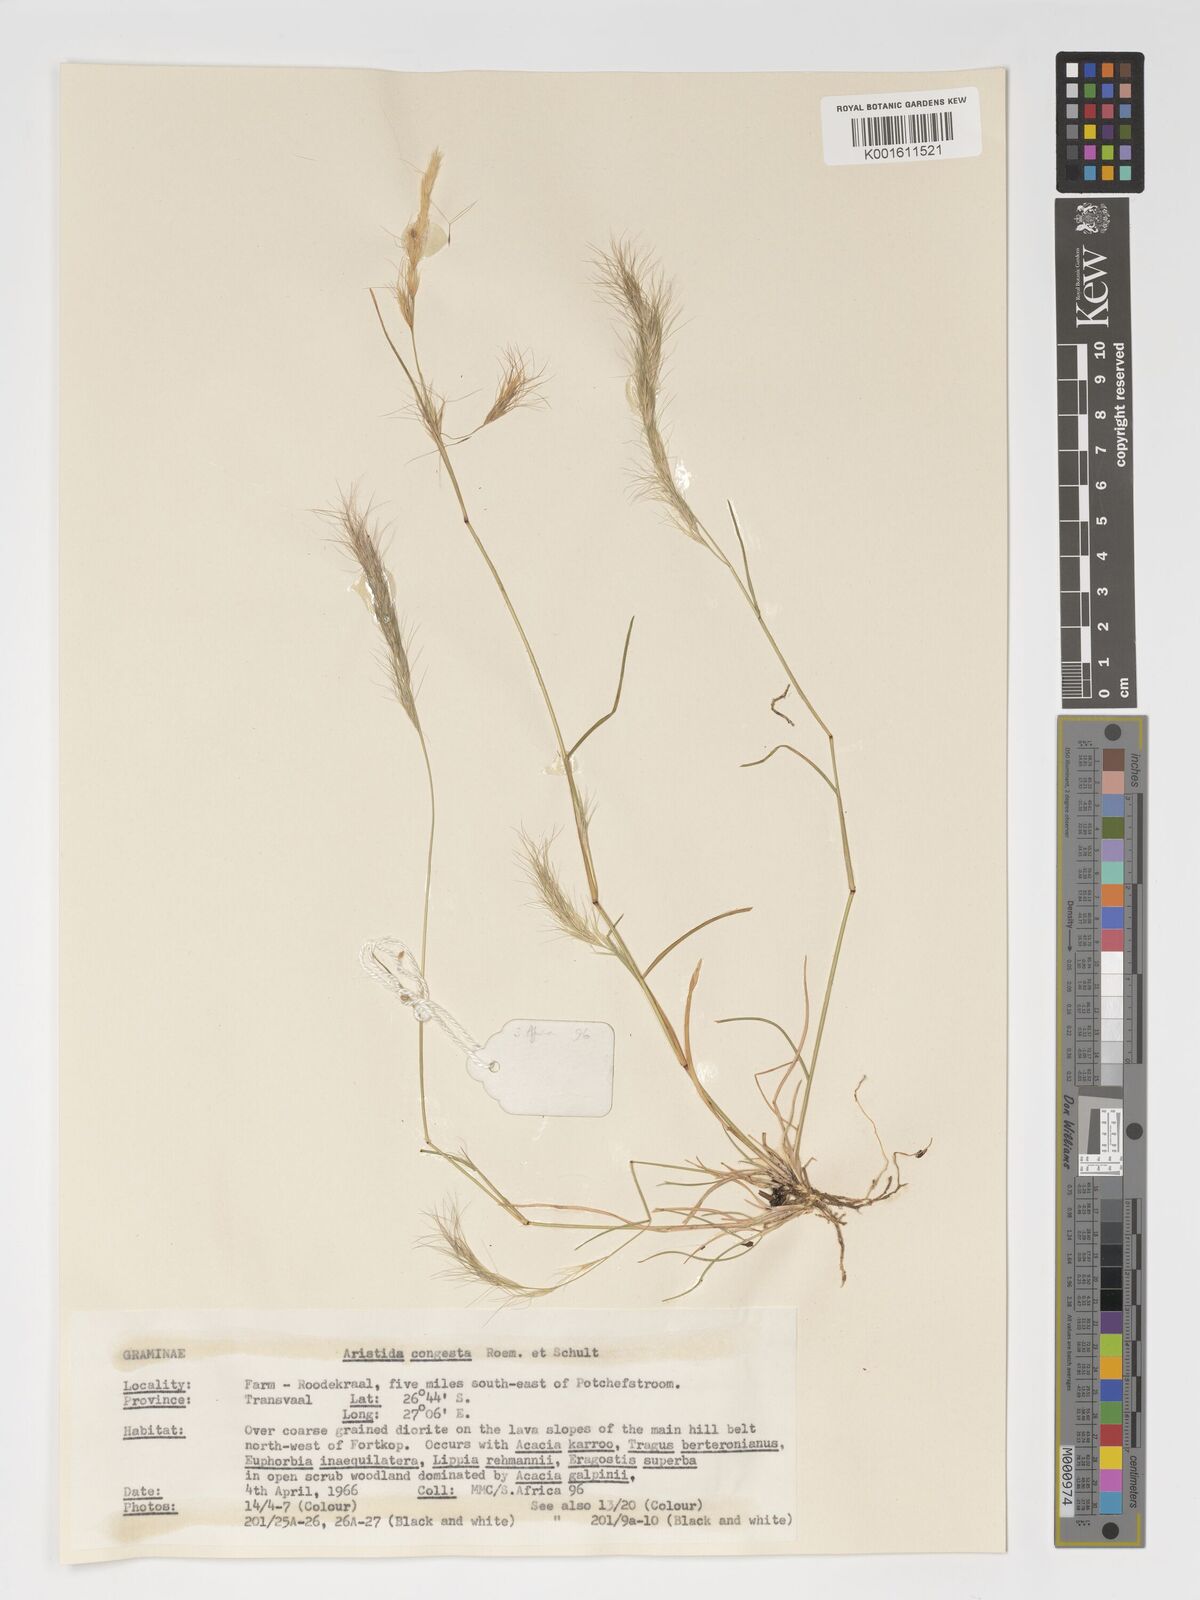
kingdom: Plantae
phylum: Tracheophyta
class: Liliopsida
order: Poales
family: Poaceae
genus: Aristida
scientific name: Aristida congesta
